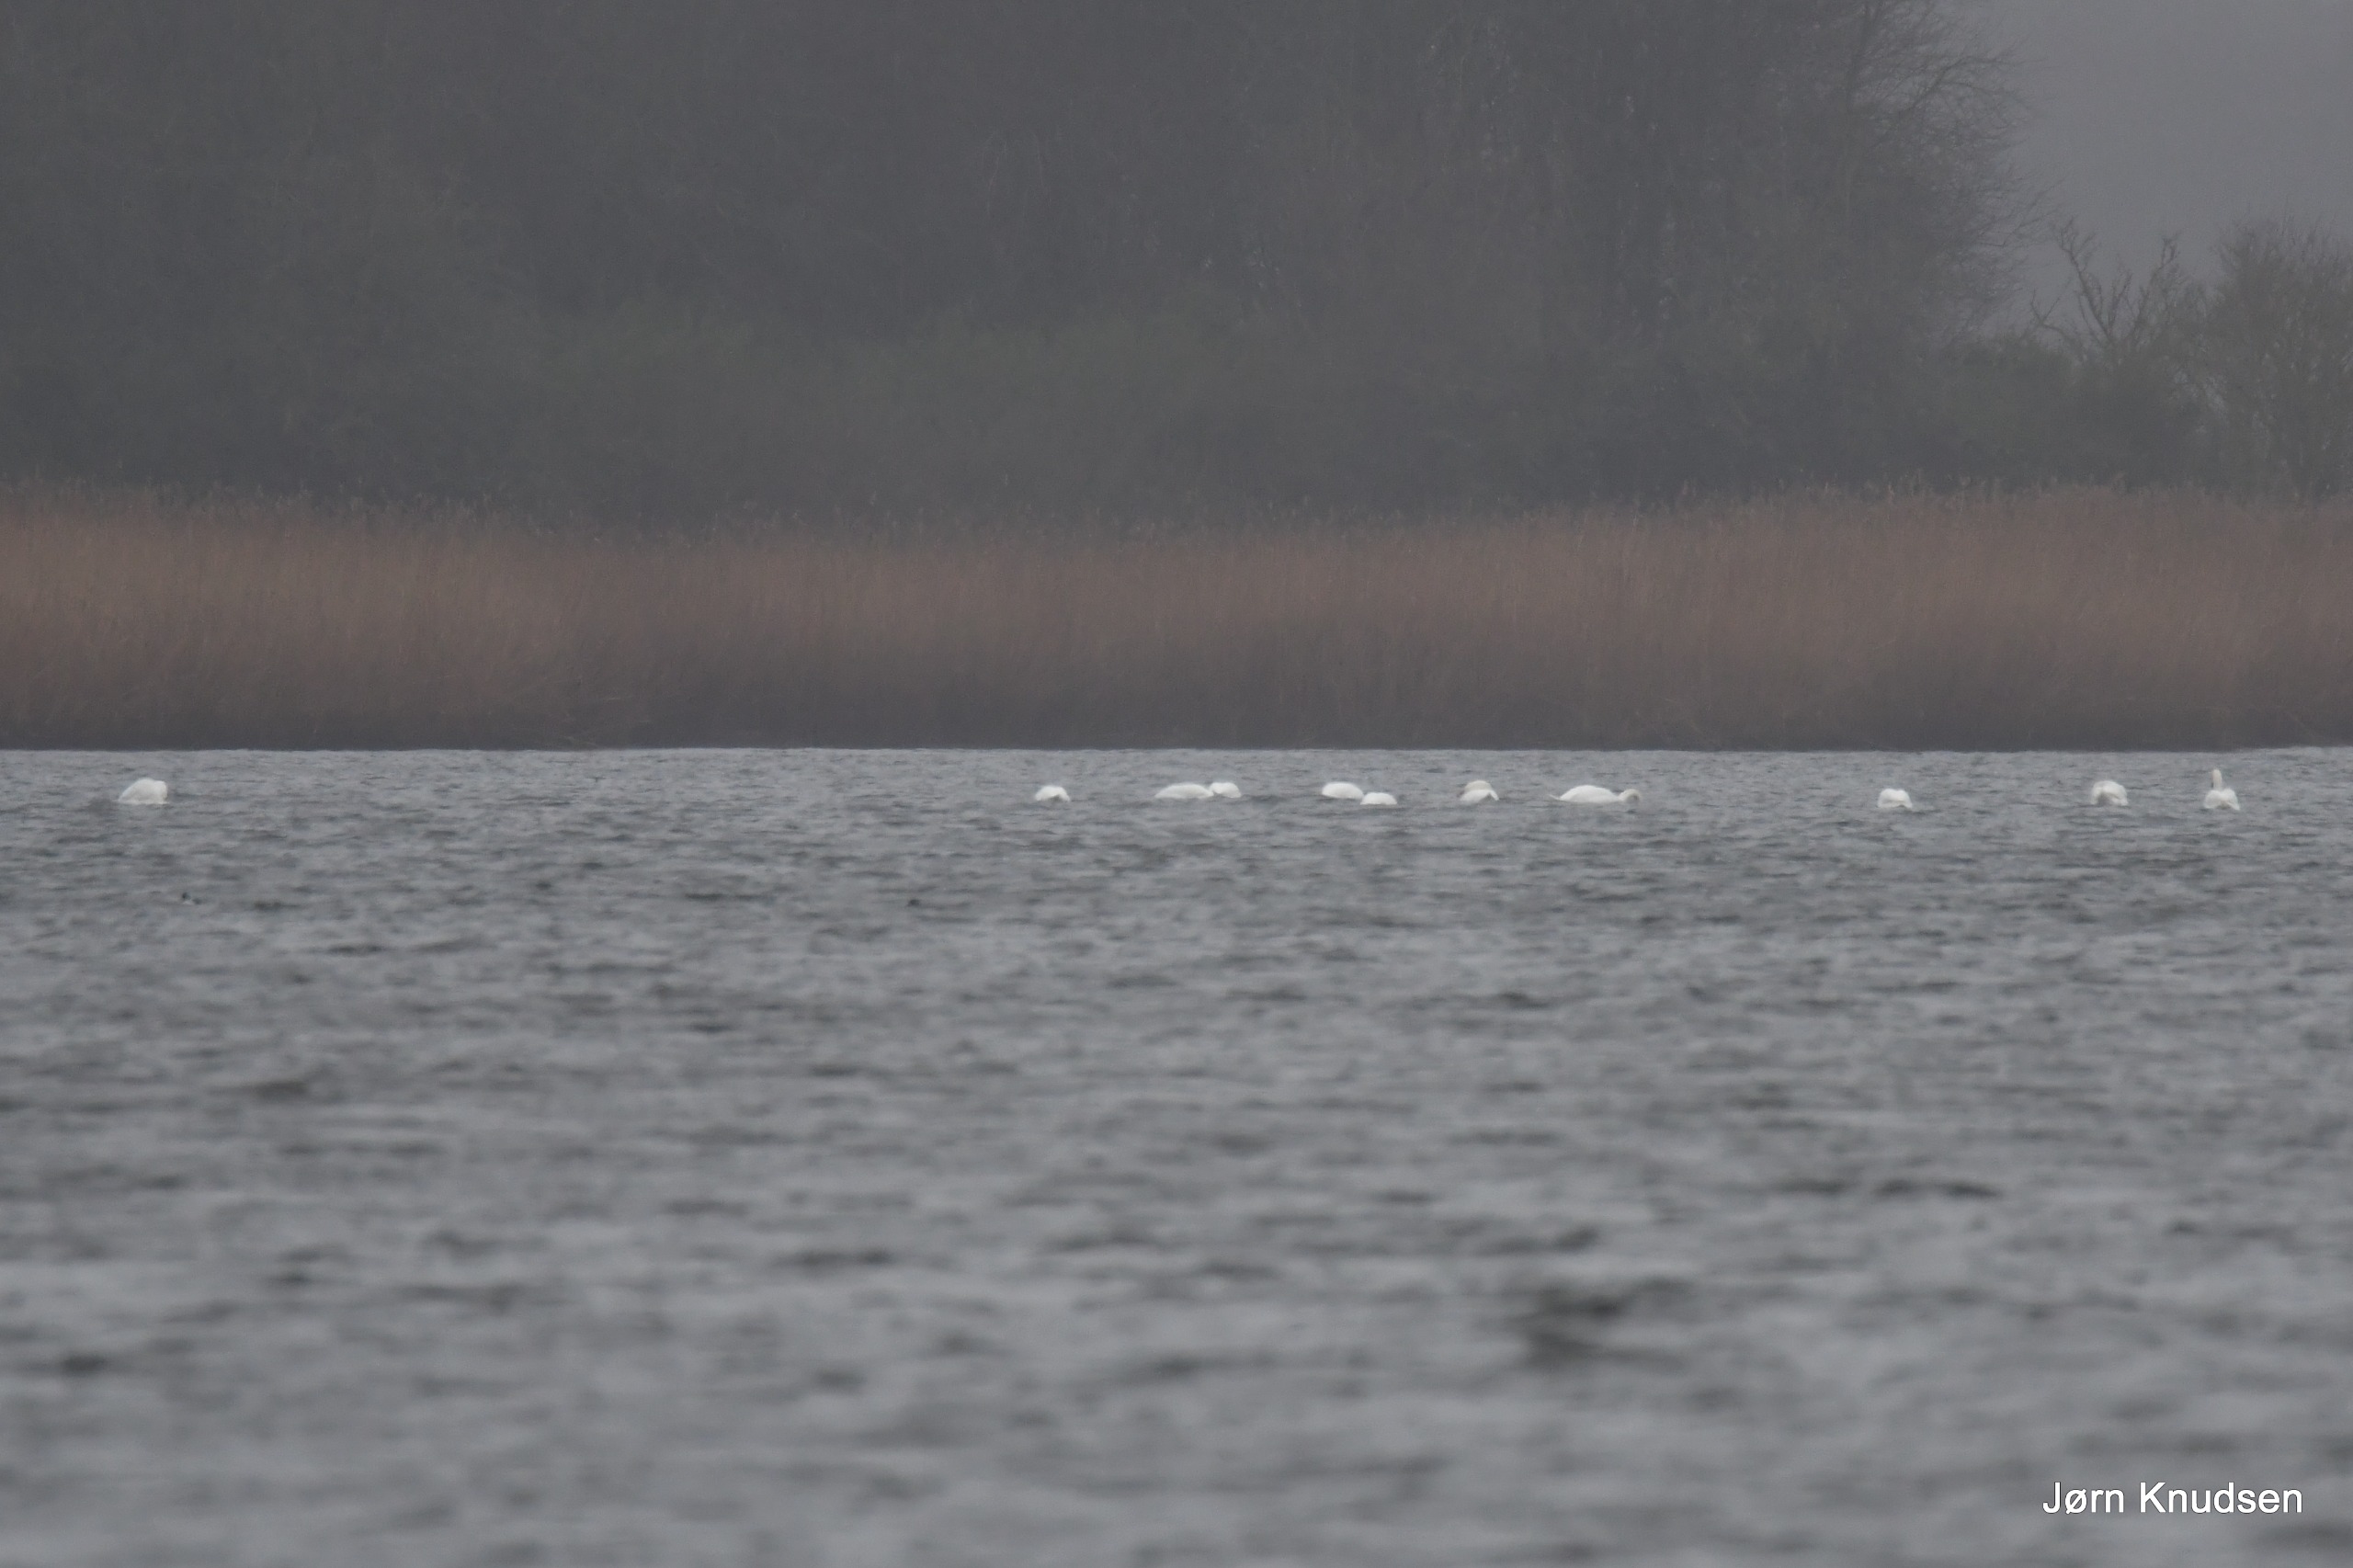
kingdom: Animalia
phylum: Chordata
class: Aves
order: Anseriformes
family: Anatidae
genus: Cygnus
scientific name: Cygnus olor
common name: Knopsvane
